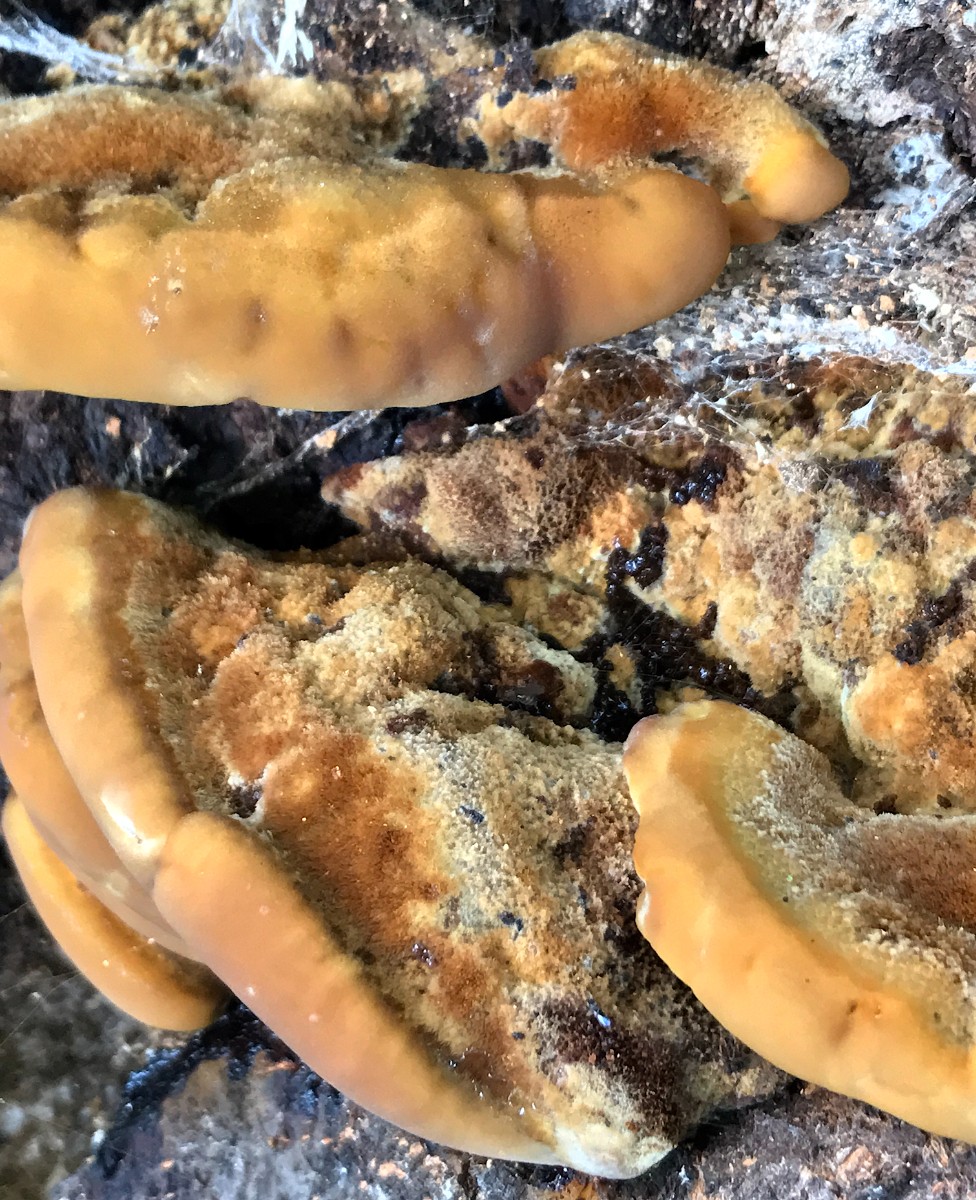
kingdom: Fungi
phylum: Basidiomycota
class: Agaricomycetes
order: Hymenochaetales
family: Hymenochaetaceae
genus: Inonotus
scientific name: Inonotus cuticularis
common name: kroghåret spejlporesvamp
